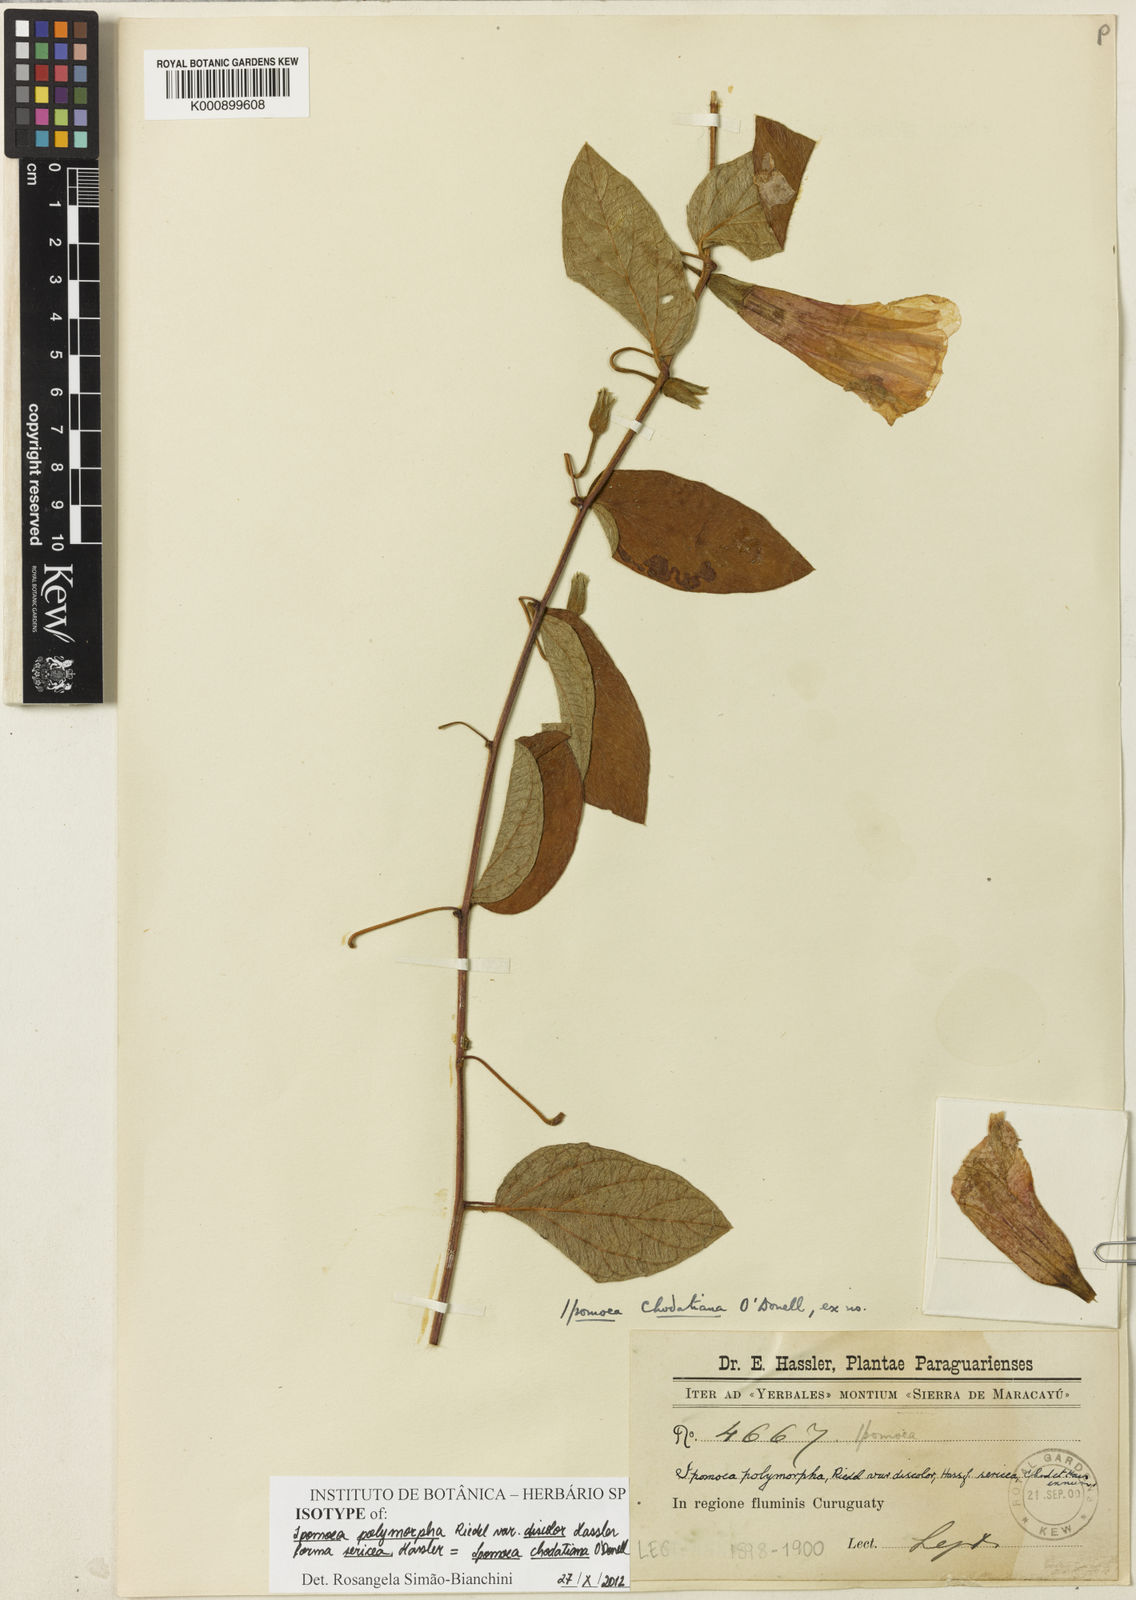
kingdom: Plantae
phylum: Tracheophyta
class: Magnoliopsida
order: Solanales
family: Convolvulaceae
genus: Ipomoea
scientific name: Ipomoea chodatiana
